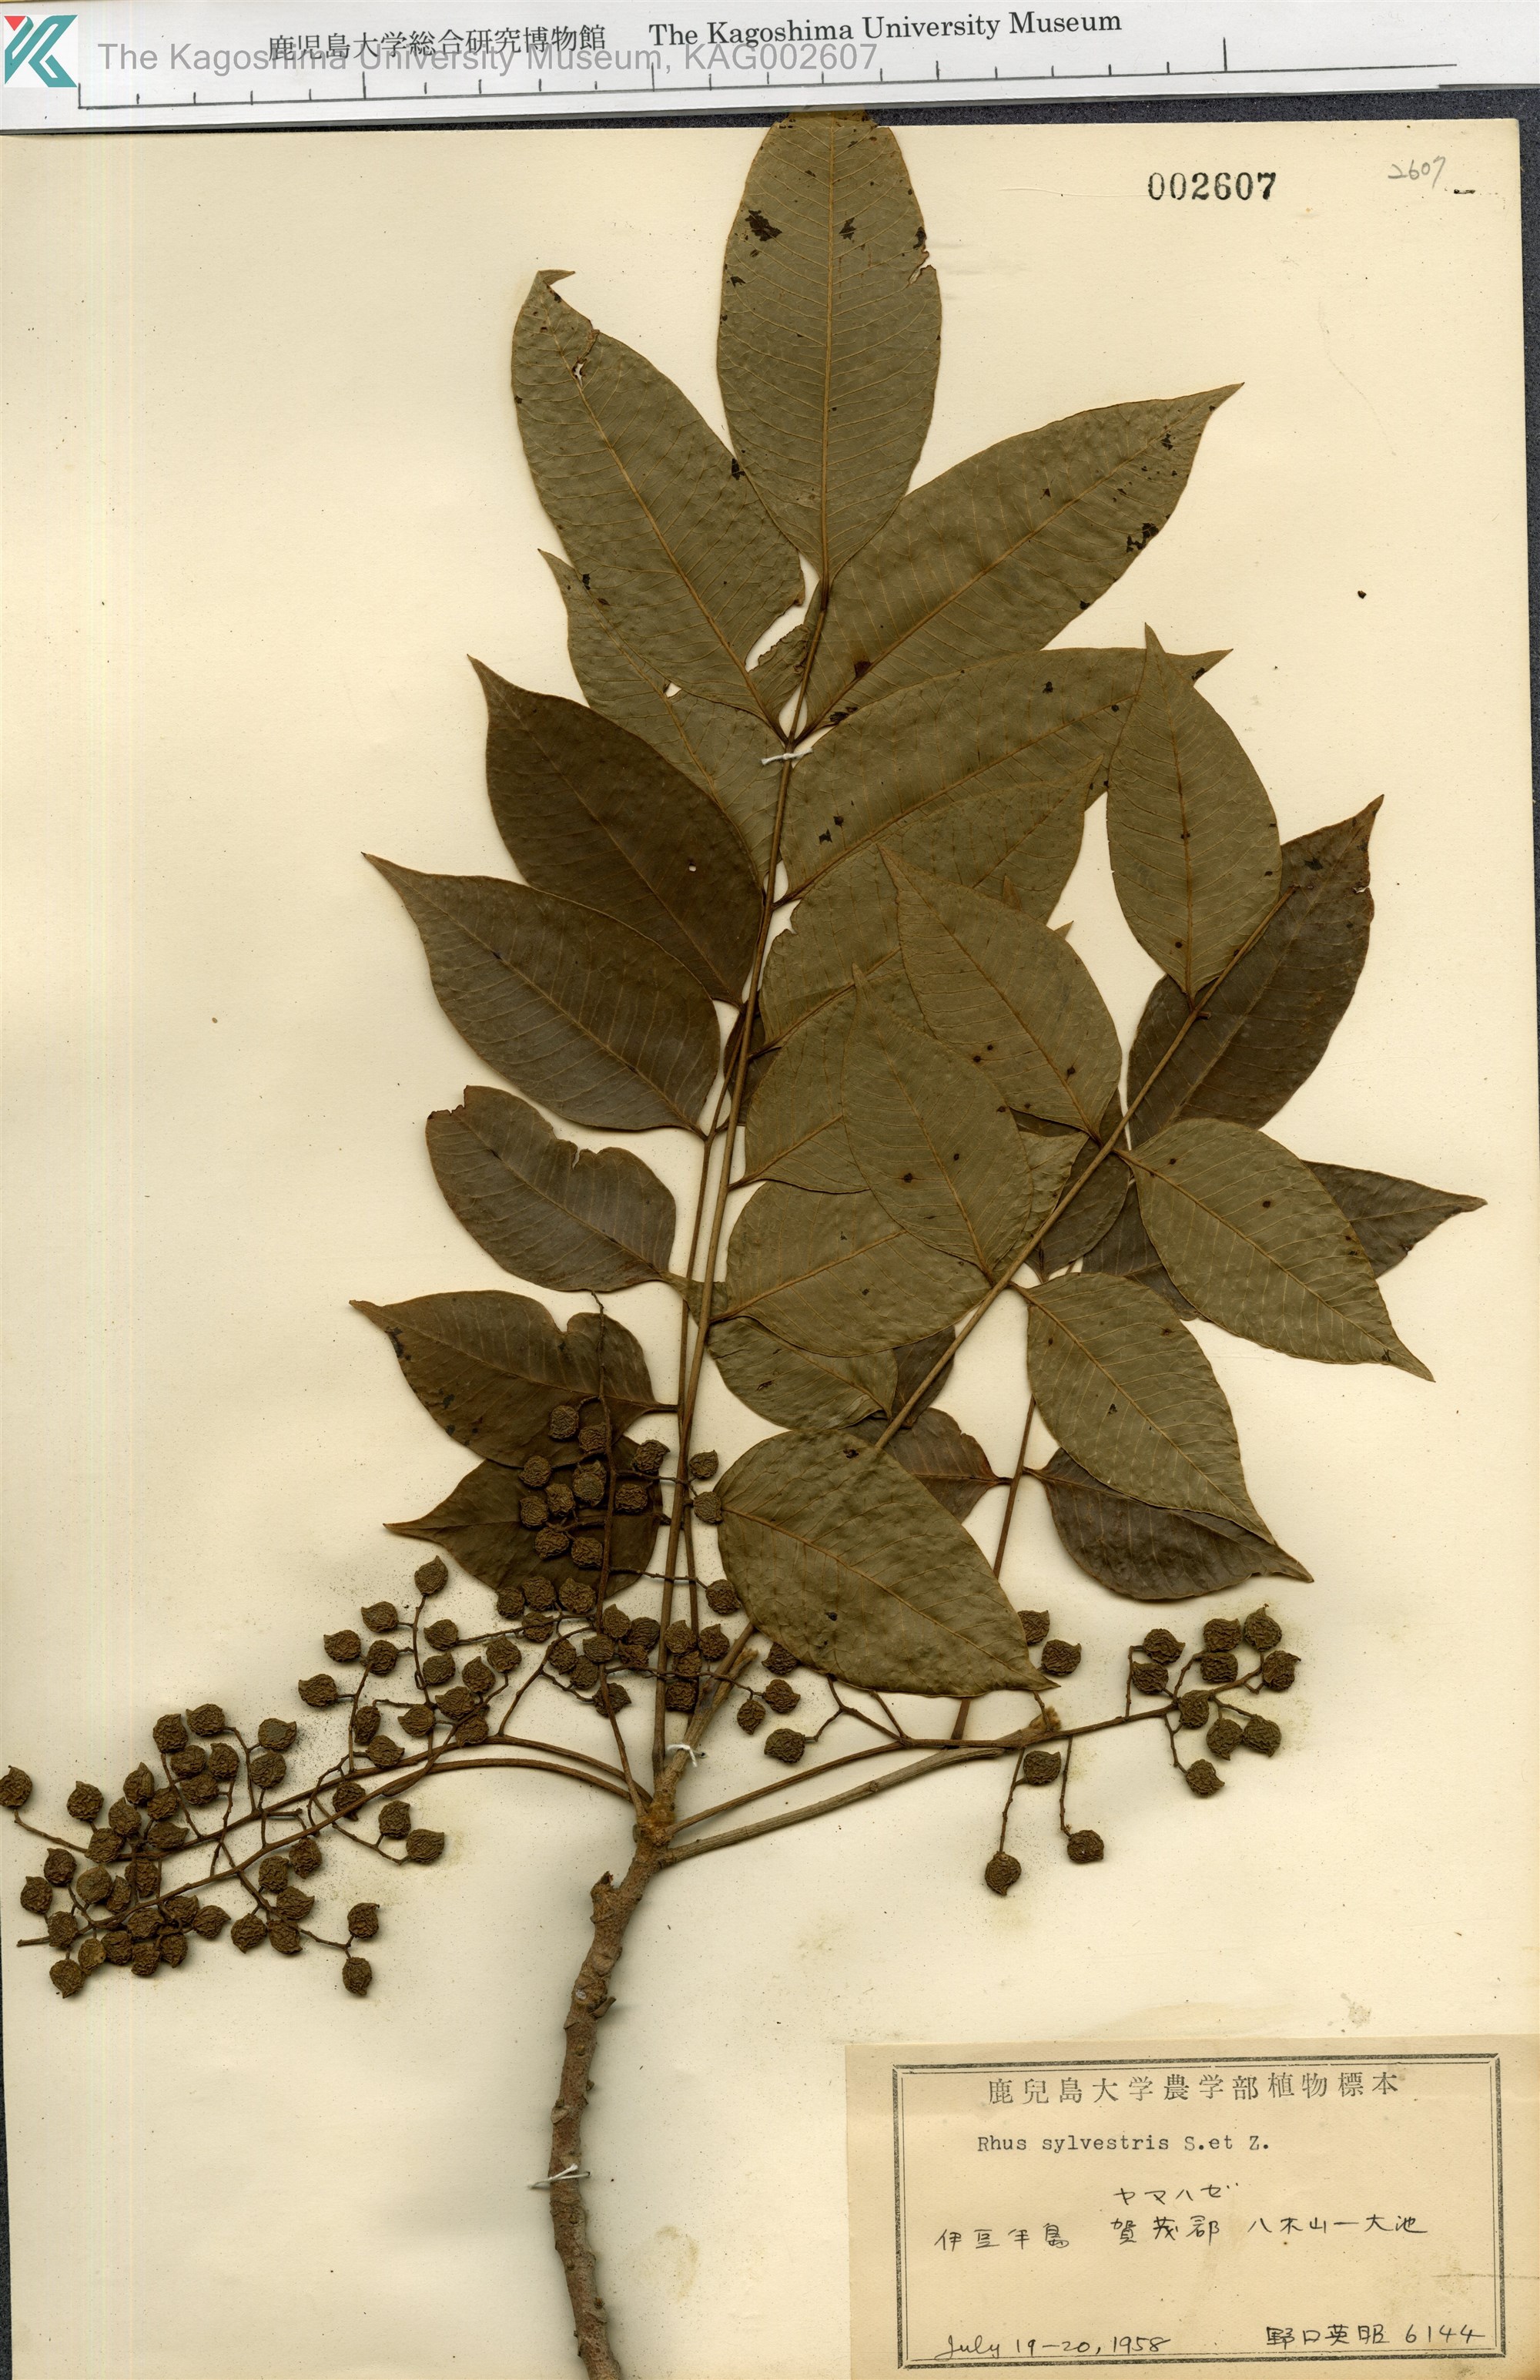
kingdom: Plantae
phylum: Tracheophyta
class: Magnoliopsida
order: Sapindales
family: Anacardiaceae
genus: Toxicodendron
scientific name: Toxicodendron sylvestre
